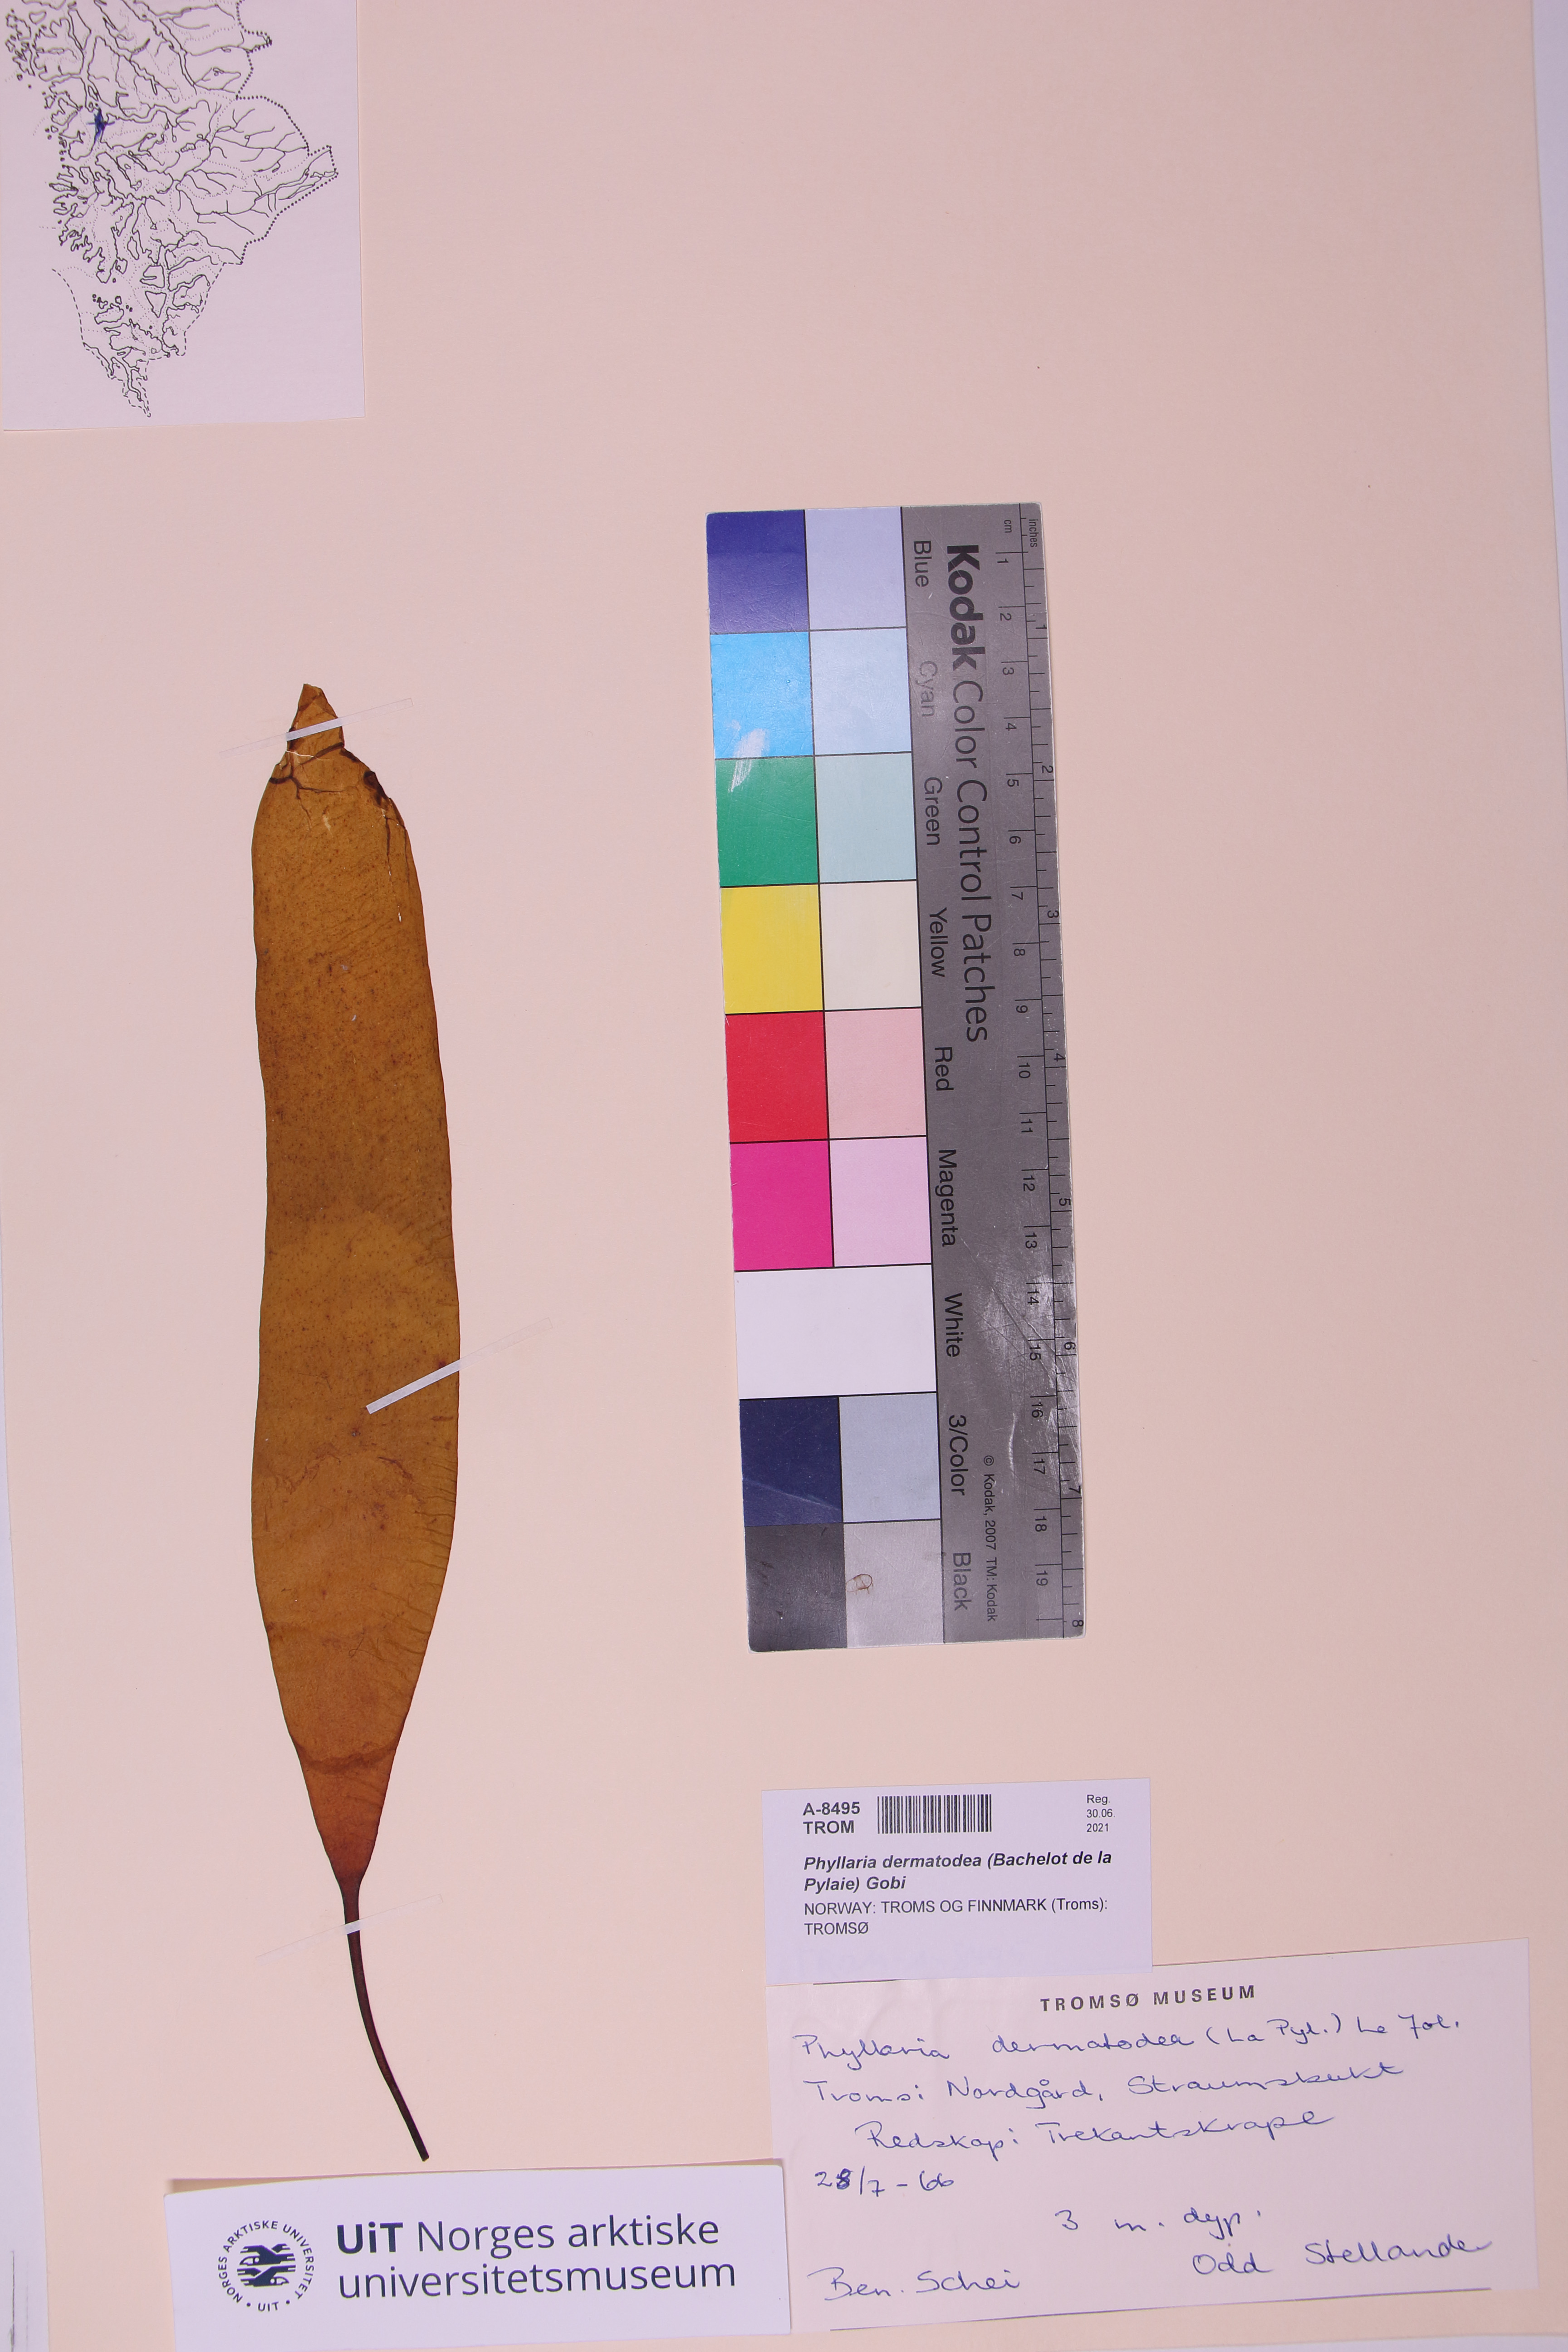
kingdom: Chromista
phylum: Ochrophyta
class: Phaeophyceae
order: Tilopteridales
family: Phyllariaceae
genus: Saccorhiza
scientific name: Saccorhiza dermatodea
